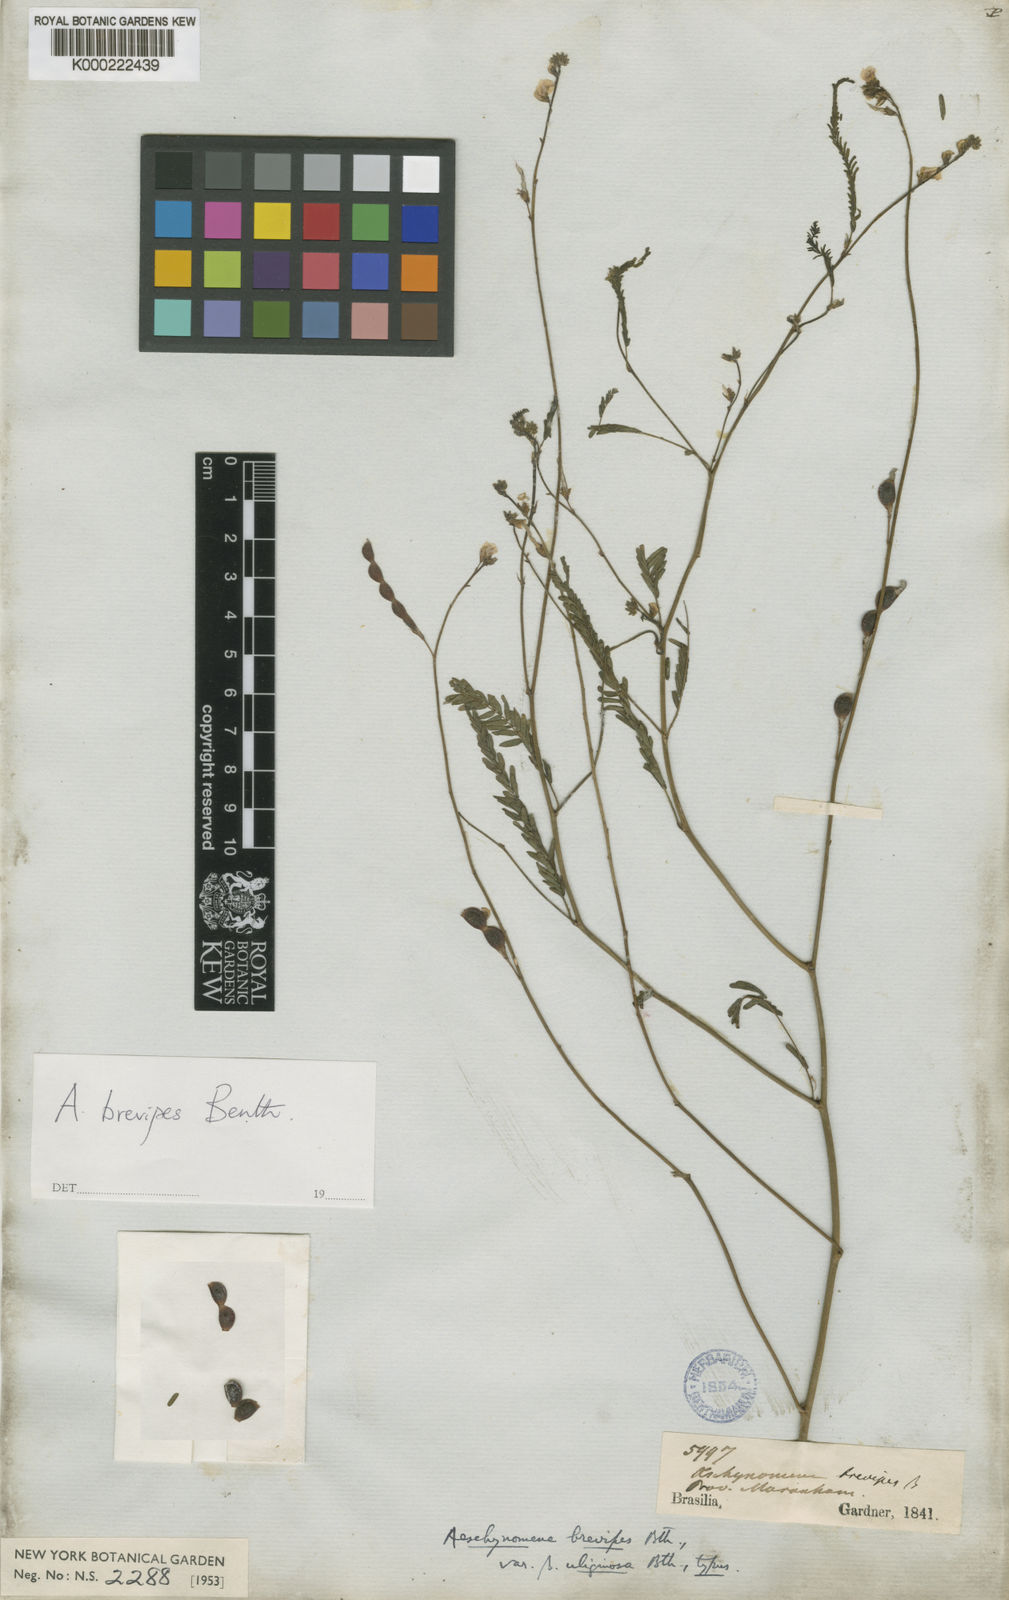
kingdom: Plantae
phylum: Tracheophyta
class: Magnoliopsida
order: Fabales
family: Fabaceae
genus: Ctenodon
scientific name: Ctenodon brevipes
